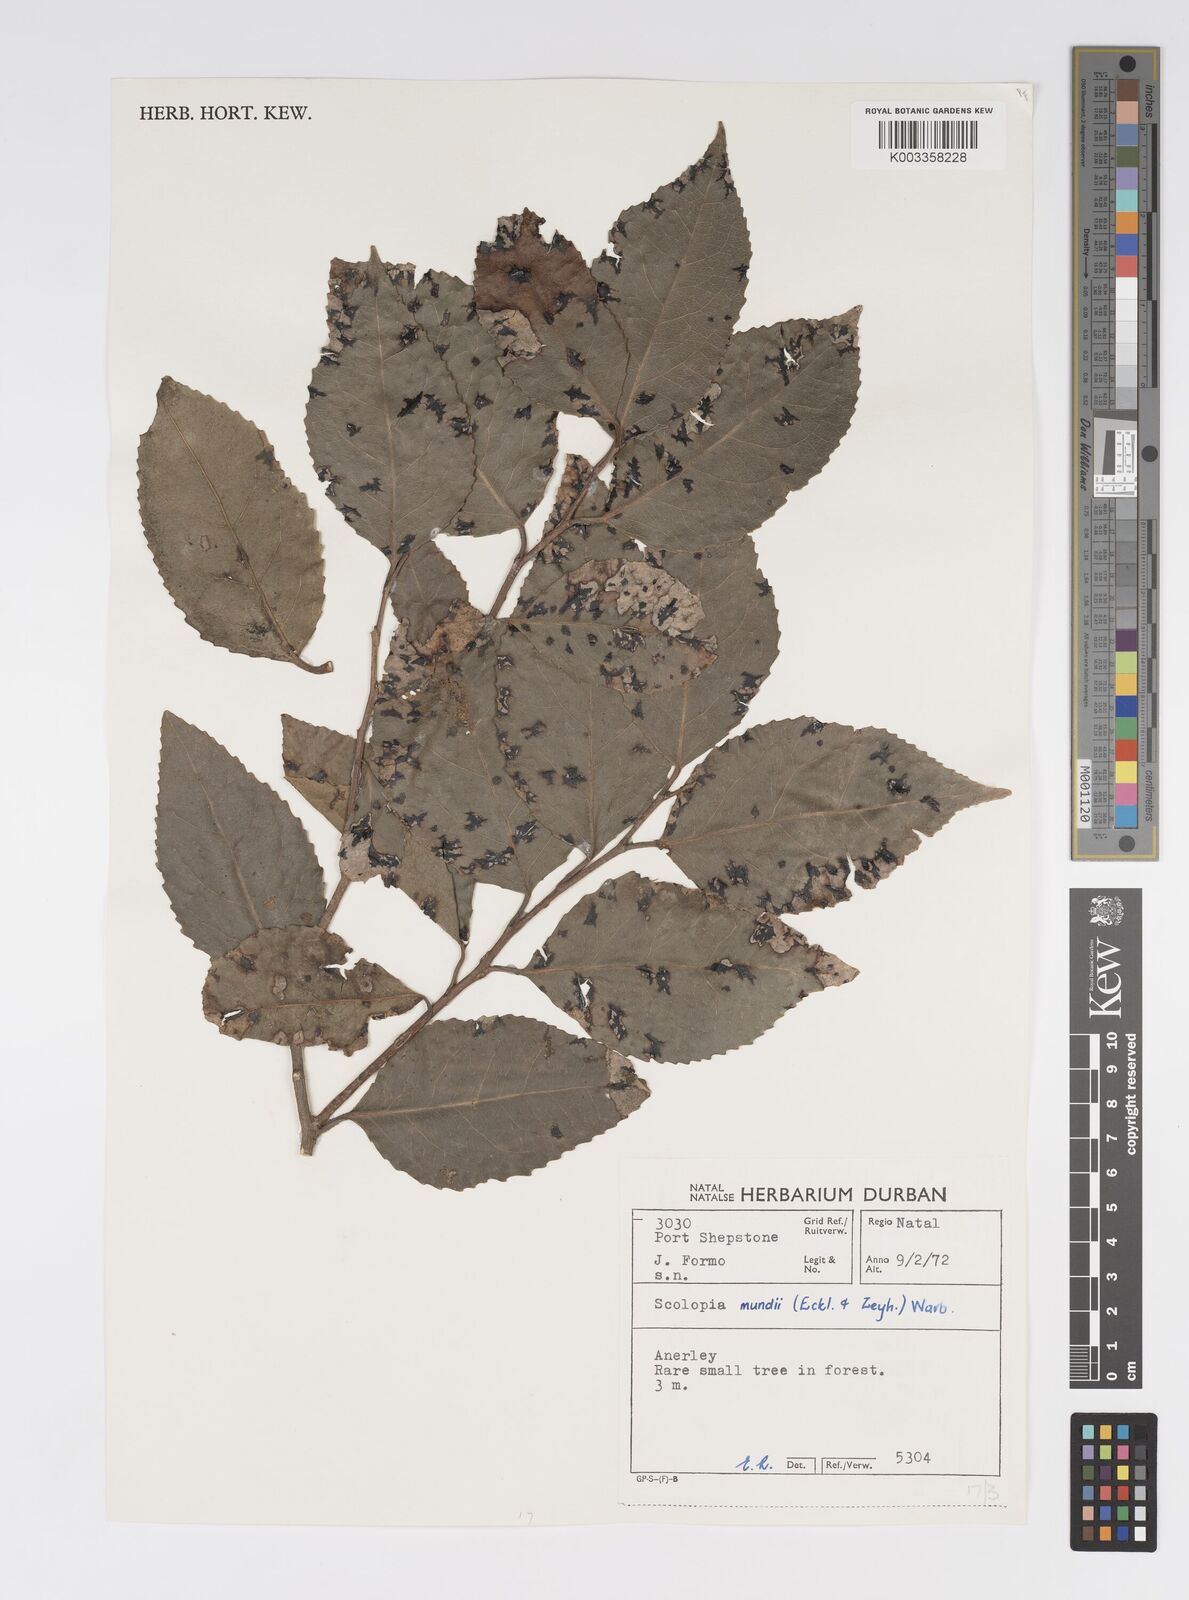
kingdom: Plantae
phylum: Tracheophyta
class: Magnoliopsida
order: Malpighiales
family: Salicaceae
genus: Scolopia
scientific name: Scolopia mundii
